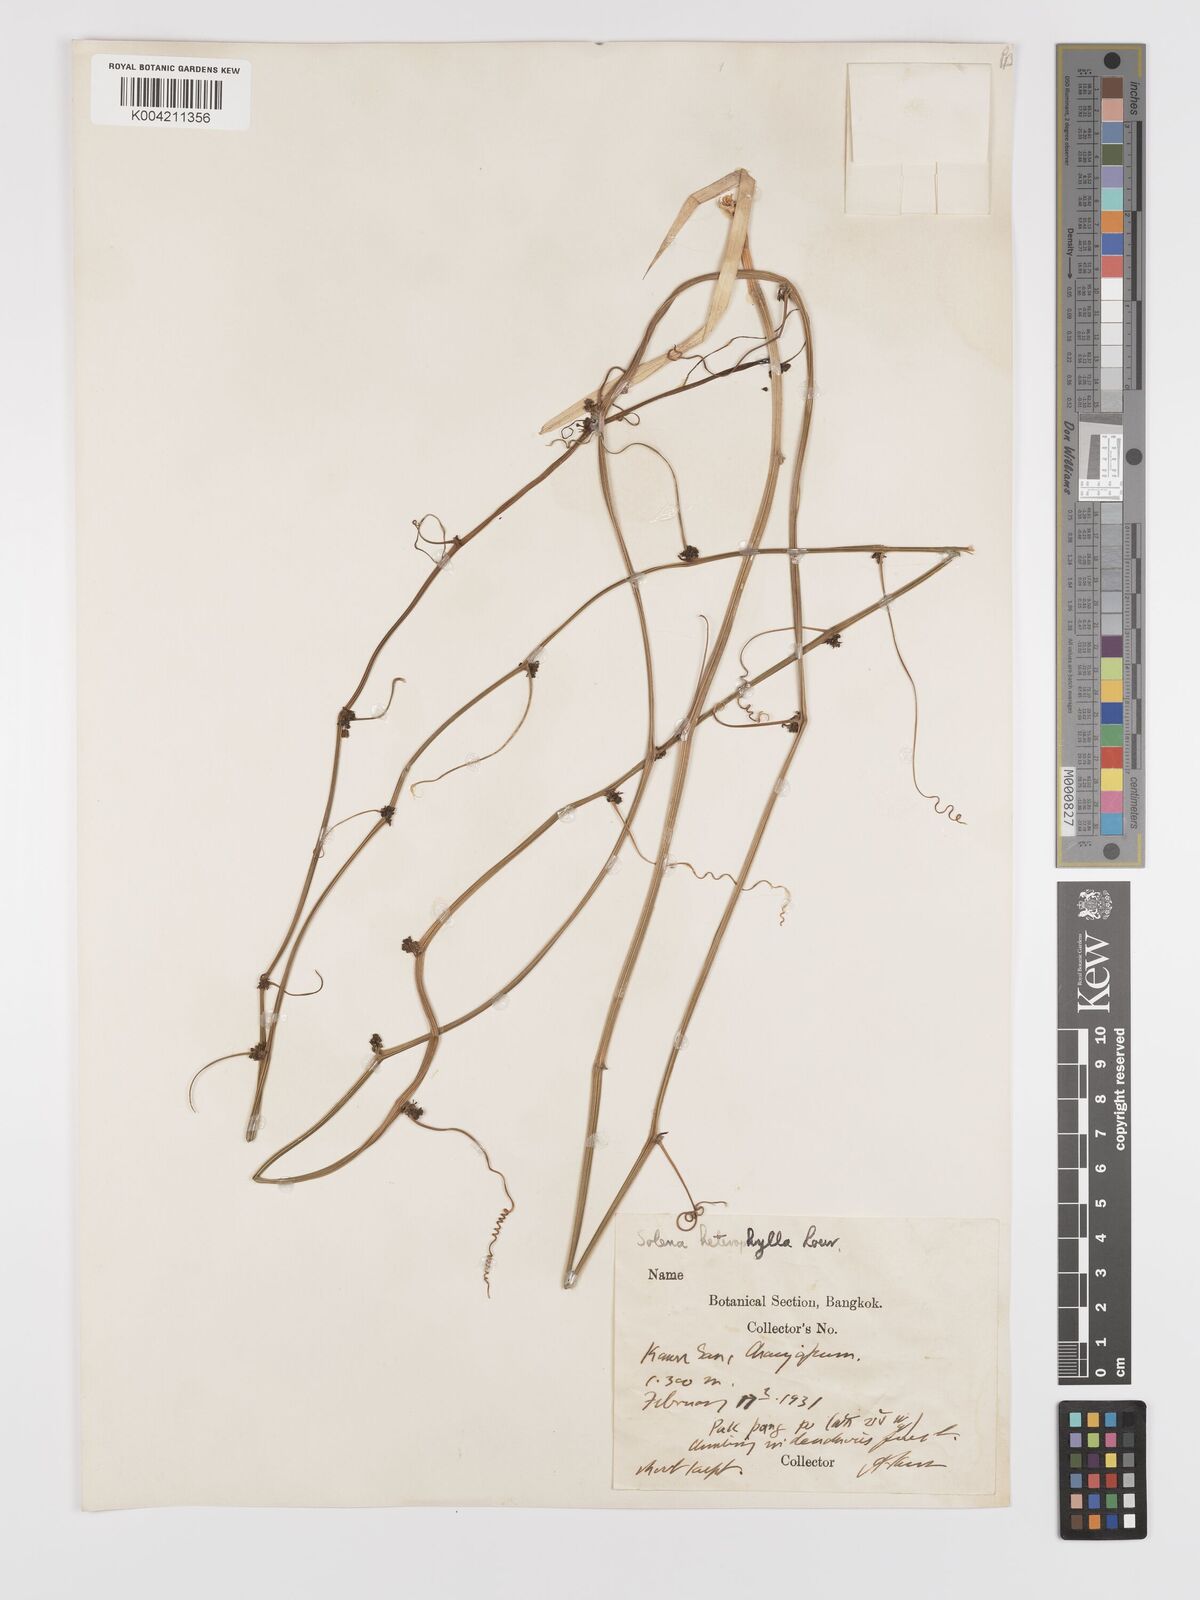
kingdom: Plantae
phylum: Tracheophyta
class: Magnoliopsida
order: Cucurbitales
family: Cucurbitaceae
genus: Solena
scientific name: Solena amplexicaulis
